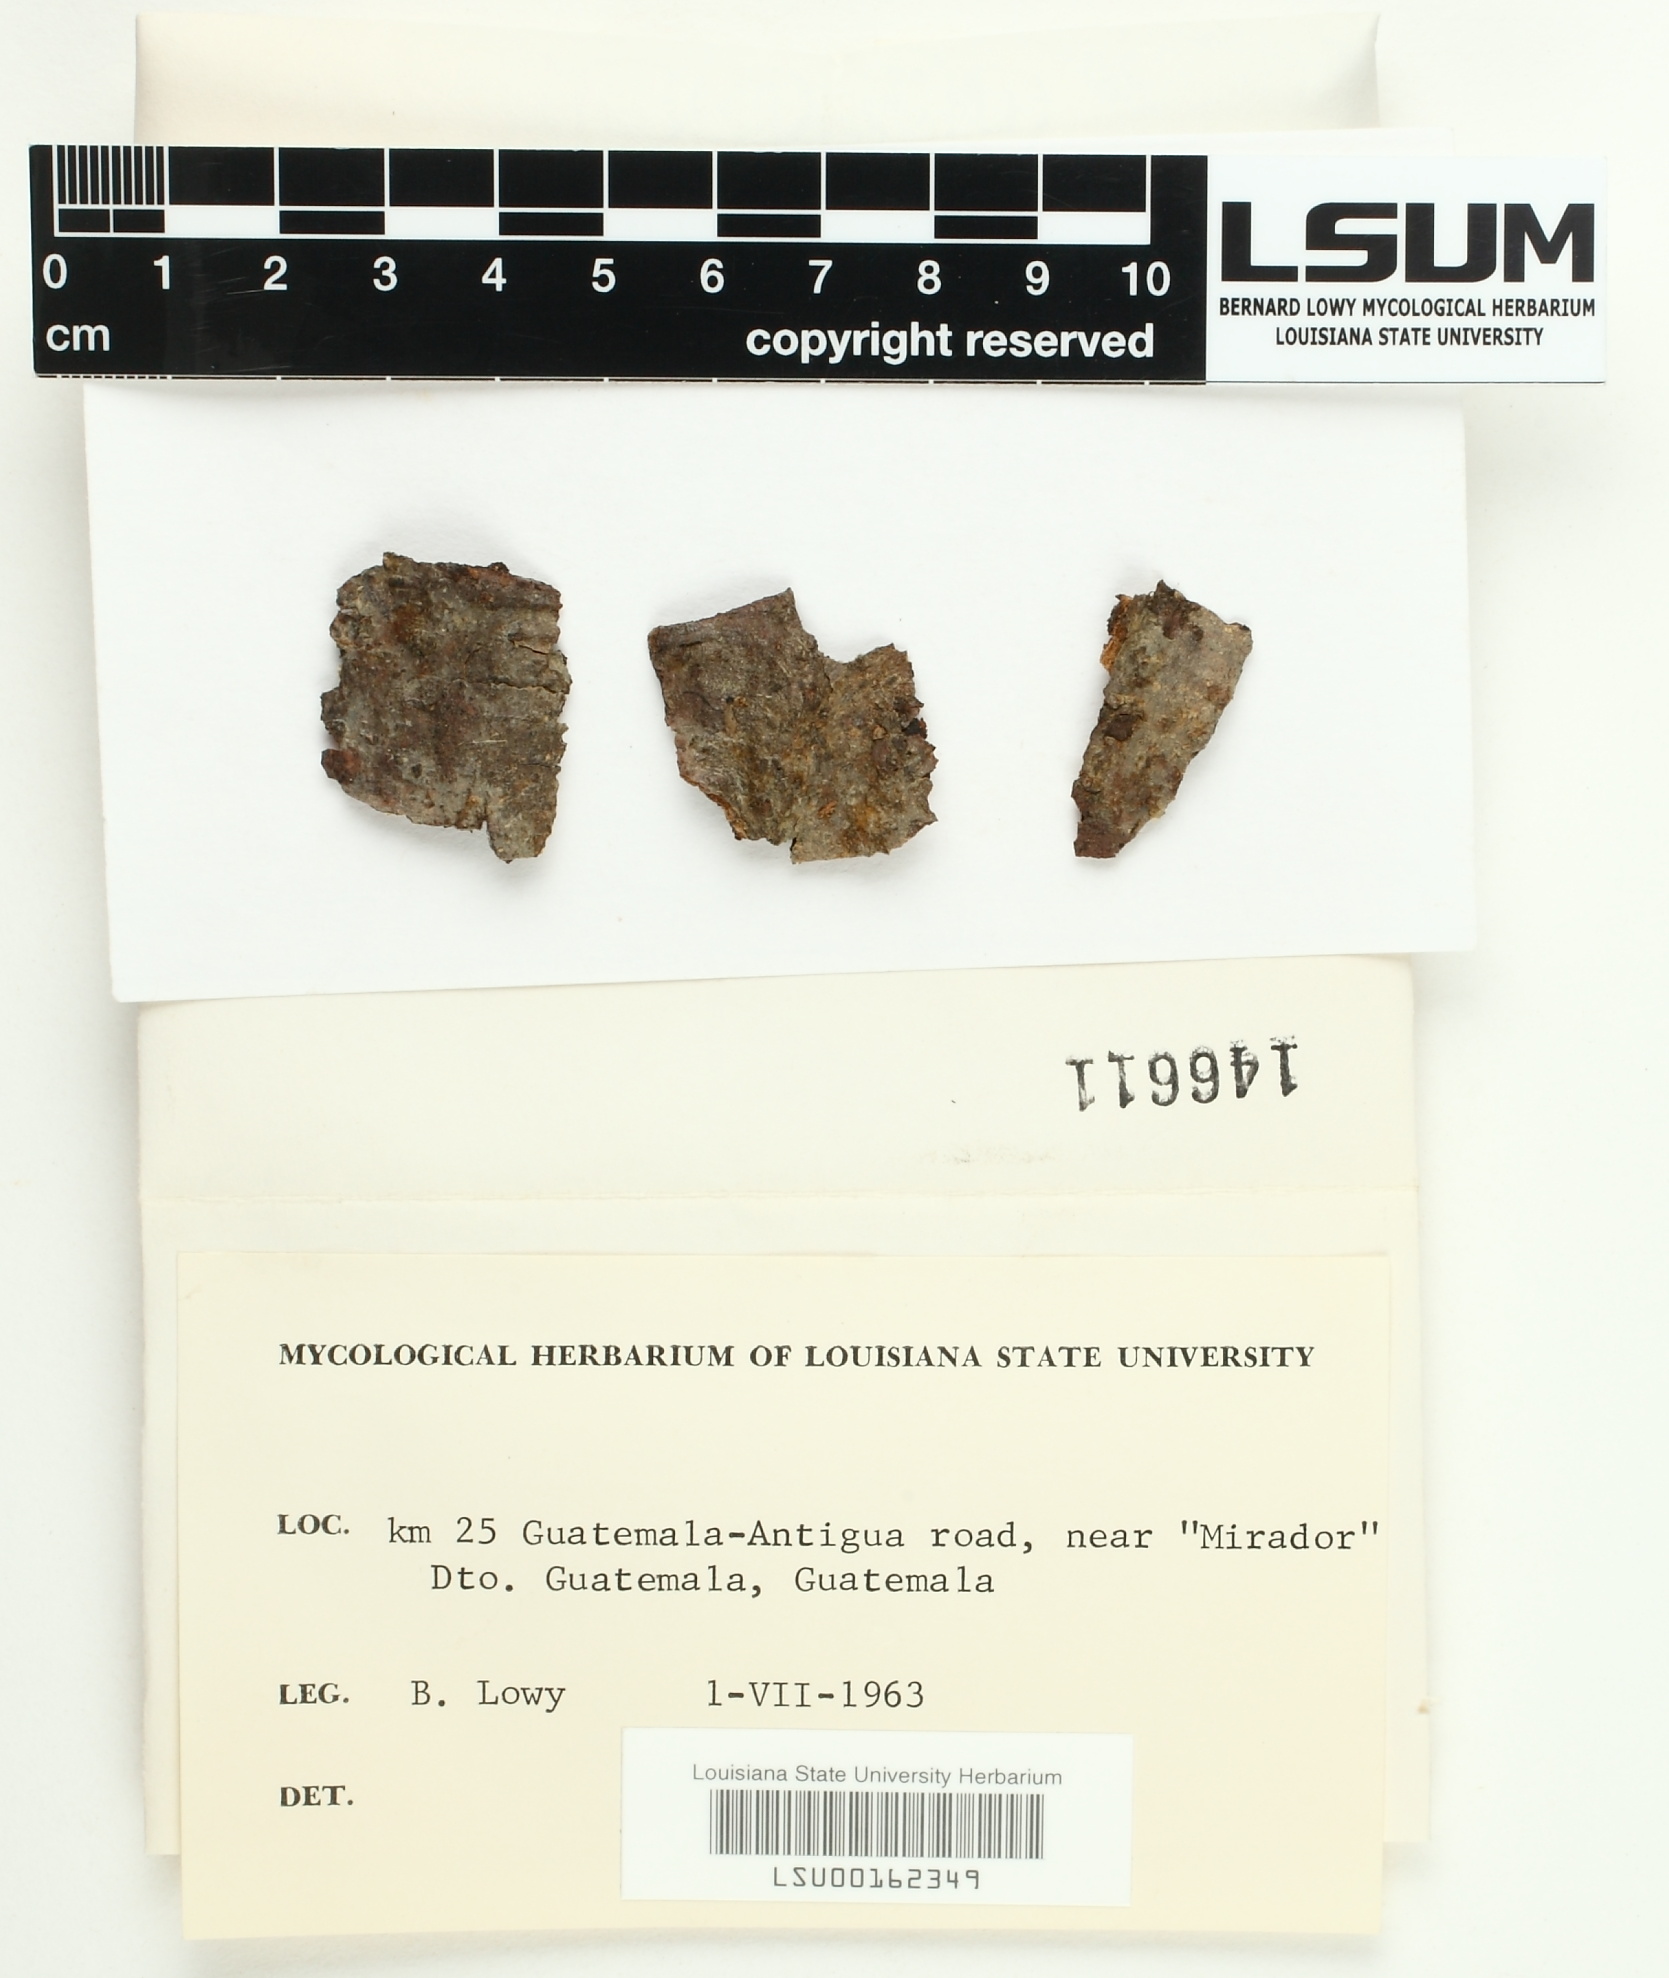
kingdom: Fungi
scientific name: Fungi
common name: Fungi
